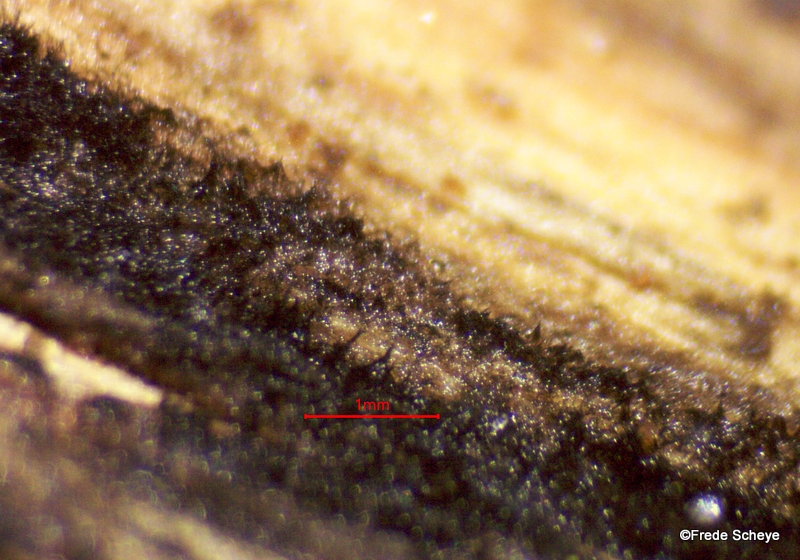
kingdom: Fungi
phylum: Ascomycota
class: Leotiomycetes
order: Helotiales
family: Helotiaceae
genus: Bispora
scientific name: Bispora pallescens
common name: måtte-snitskive
